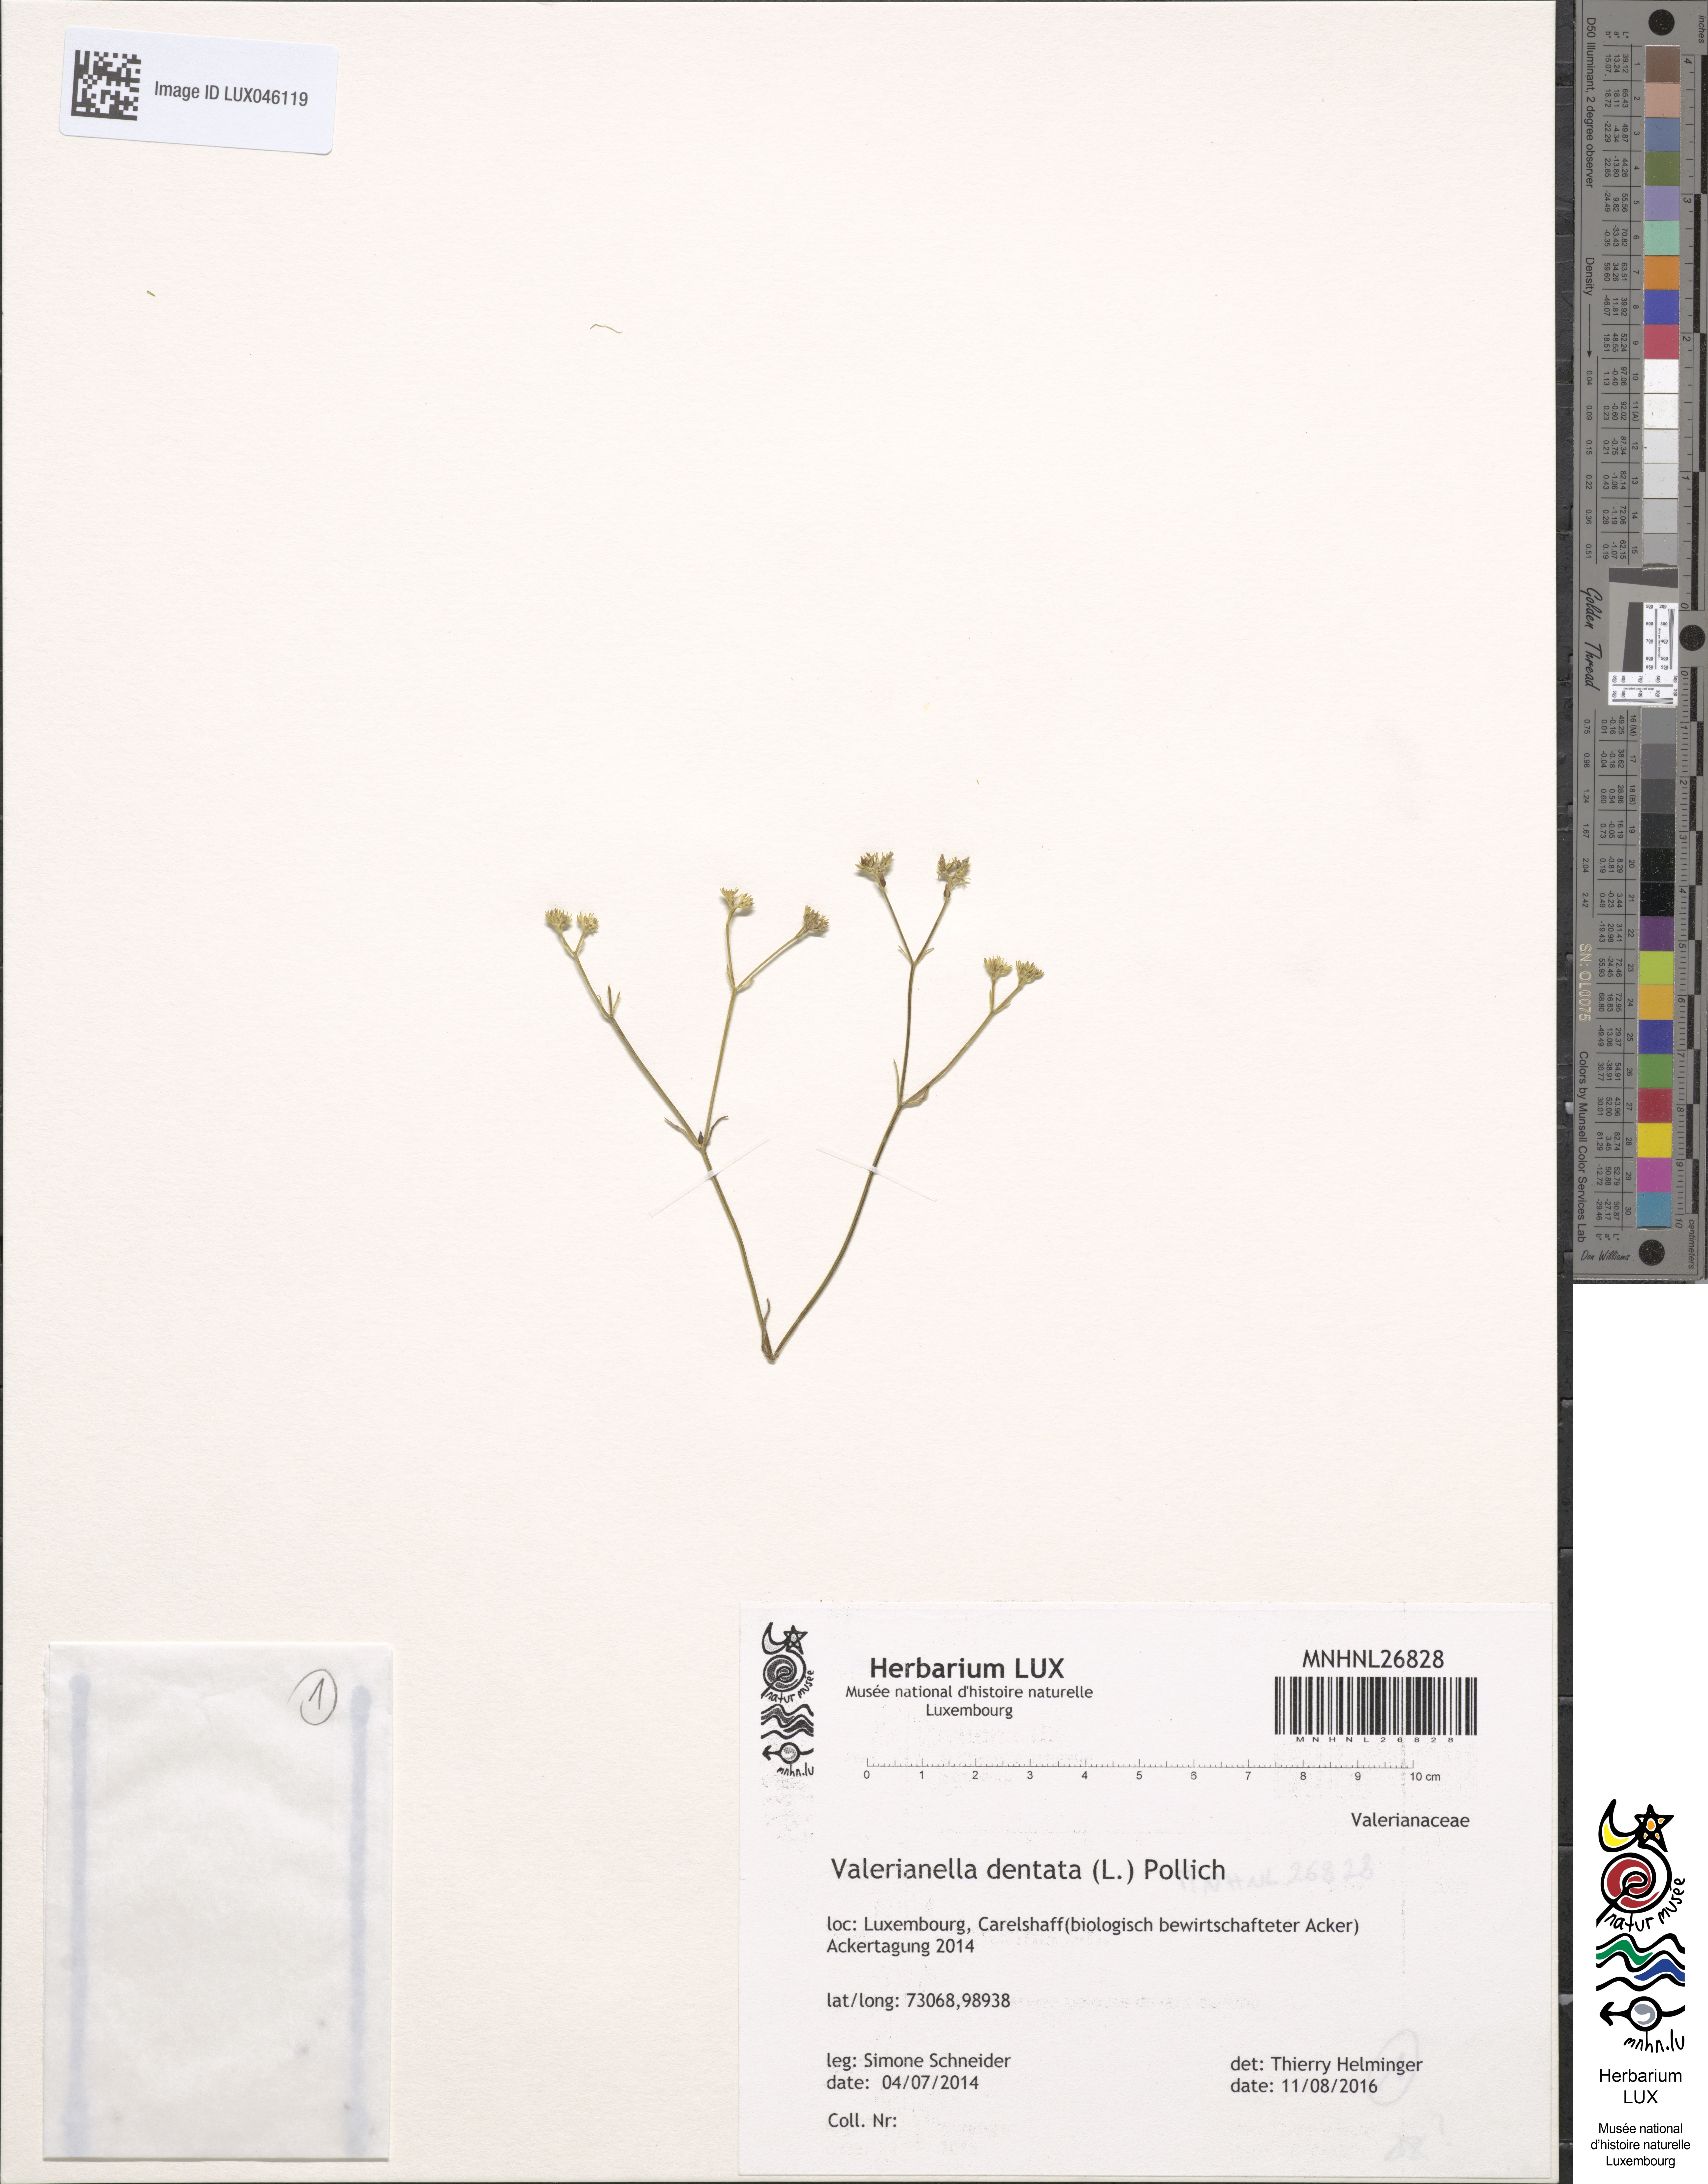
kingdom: Plantae
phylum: Tracheophyta
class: Magnoliopsida
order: Dipsacales
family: Caprifoliaceae
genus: Valerianella
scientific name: Valerianella dentata
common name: Narrow-fruited cornsalad
